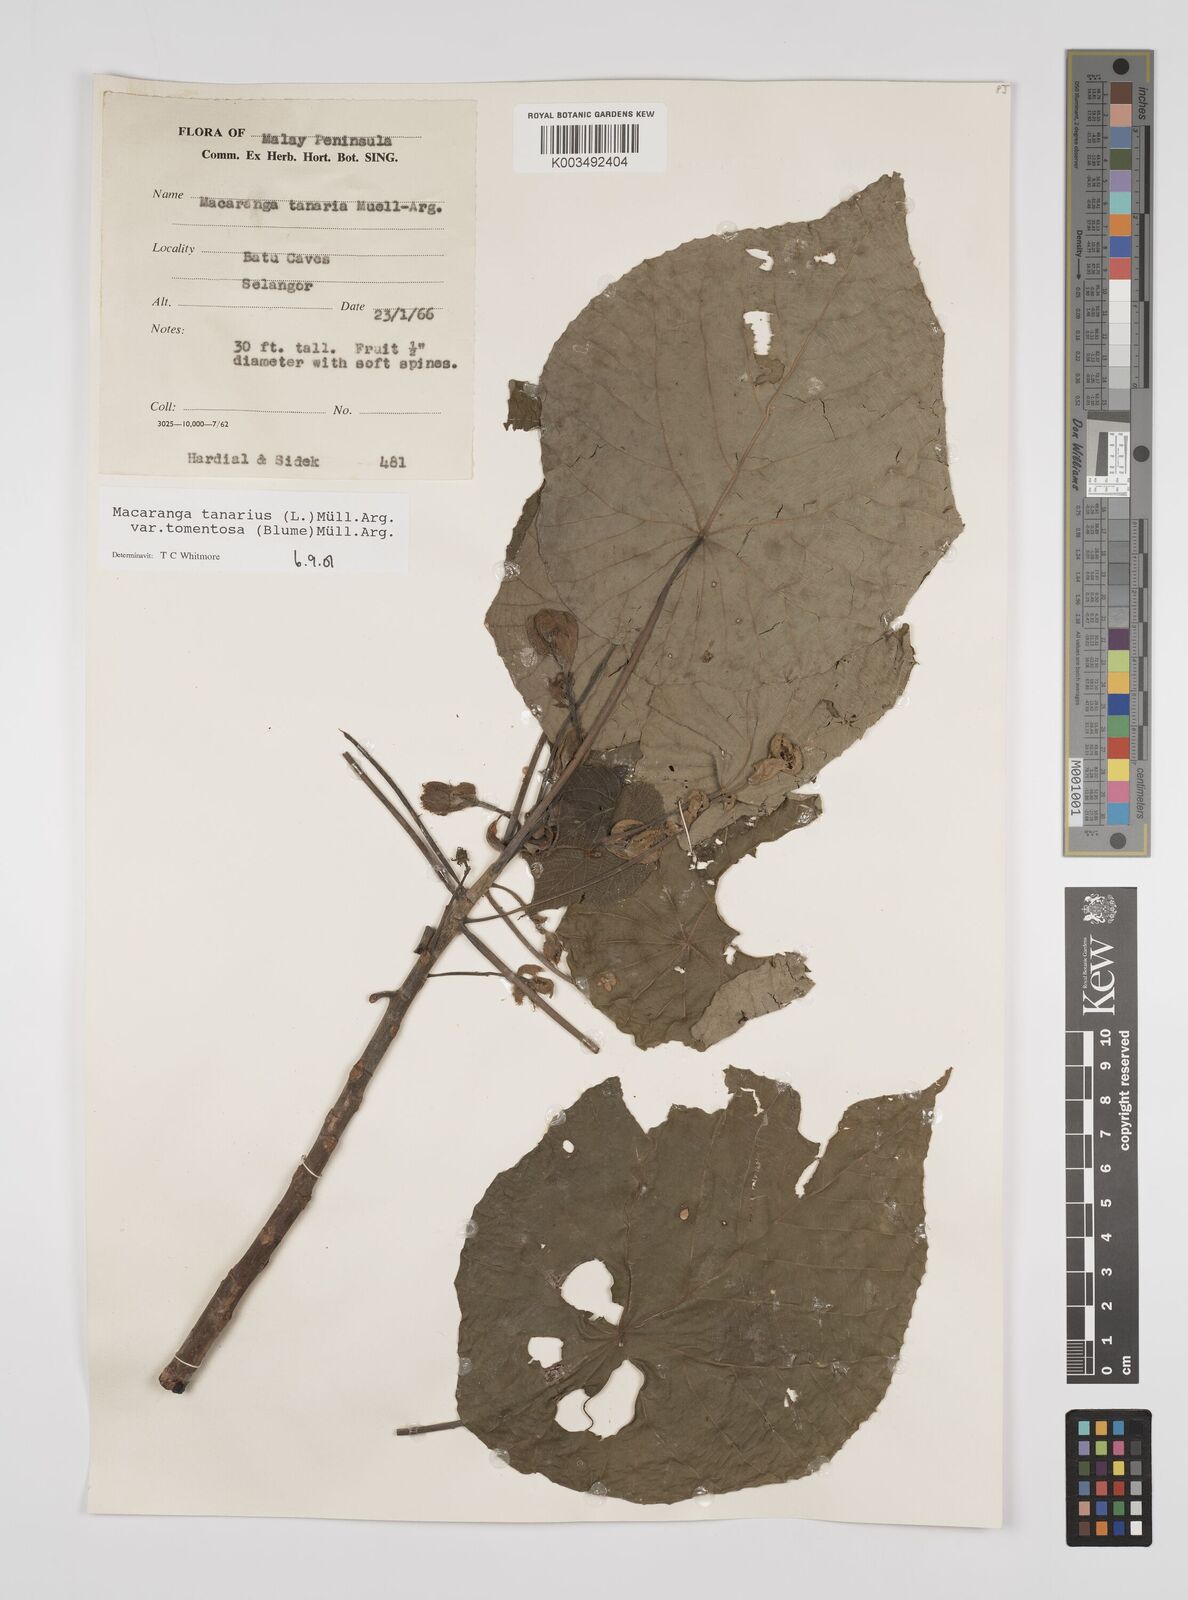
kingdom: Plantae
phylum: Tracheophyta
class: Magnoliopsida
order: Malpighiales
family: Euphorbiaceae
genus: Macaranga
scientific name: Macaranga tanarius
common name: Parasol leaf tree
